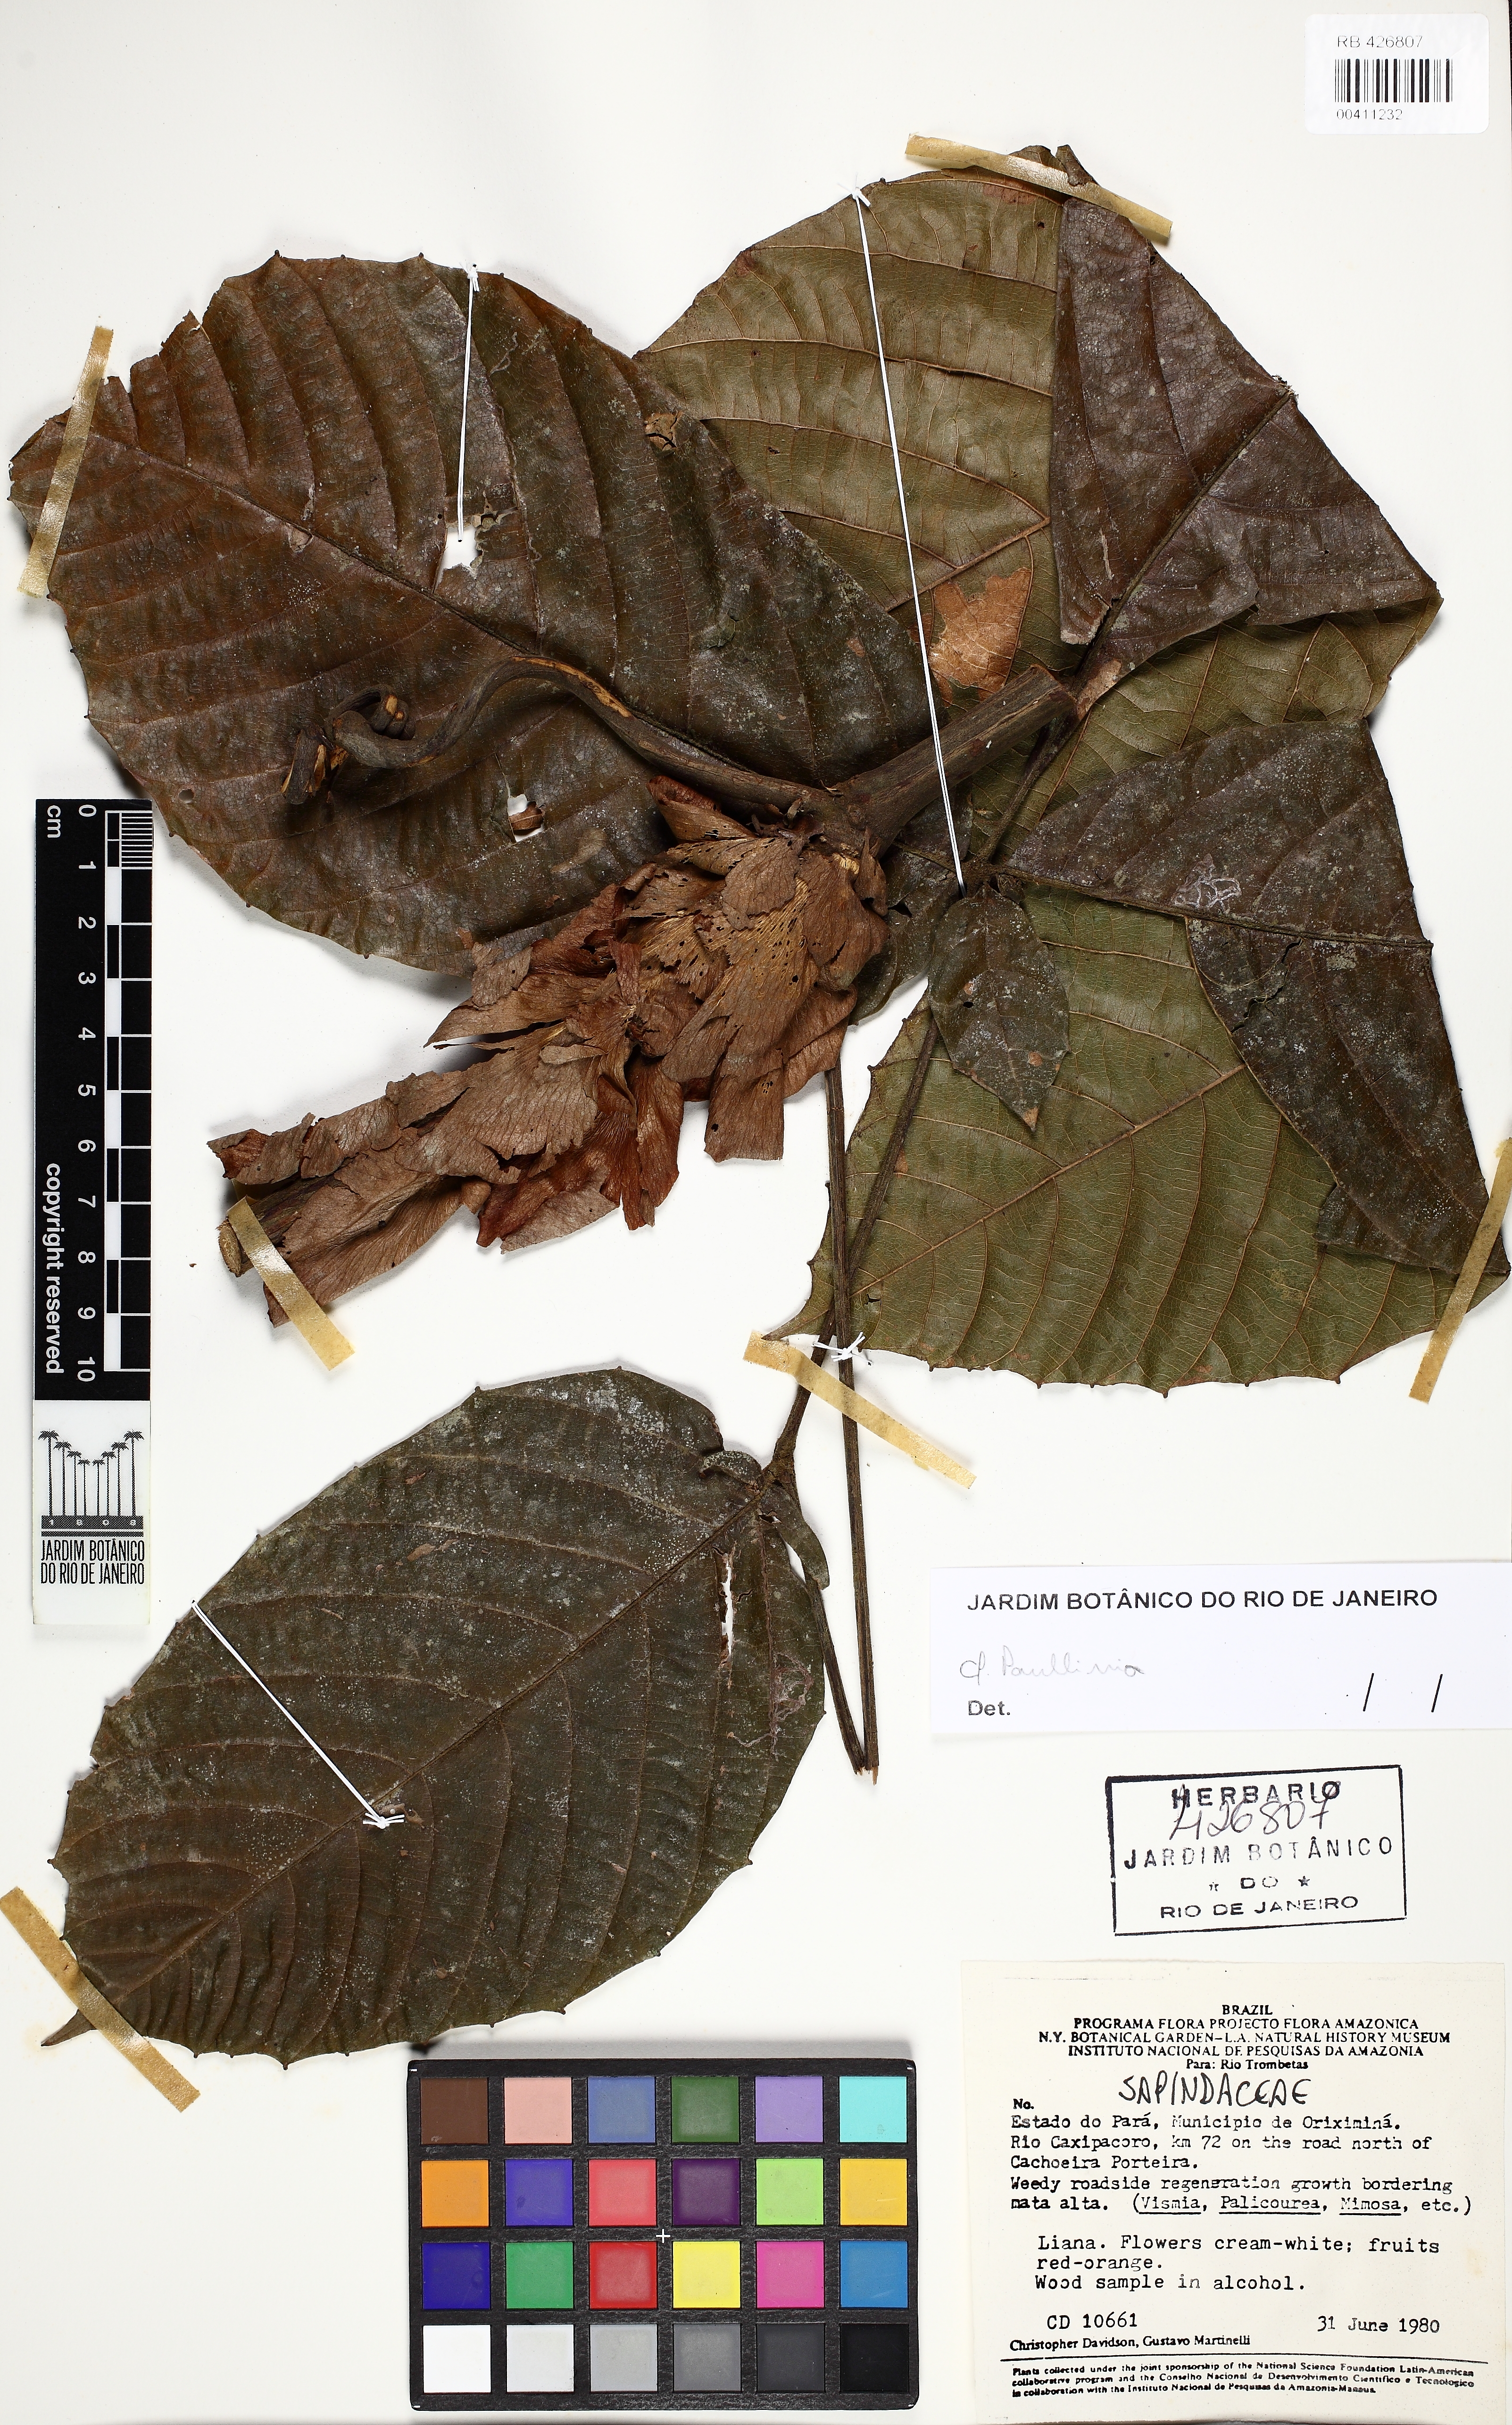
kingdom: Plantae
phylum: Tracheophyta
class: Magnoliopsida
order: Sapindales
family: Sapindaceae
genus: Paullinia
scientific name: Paullinia
